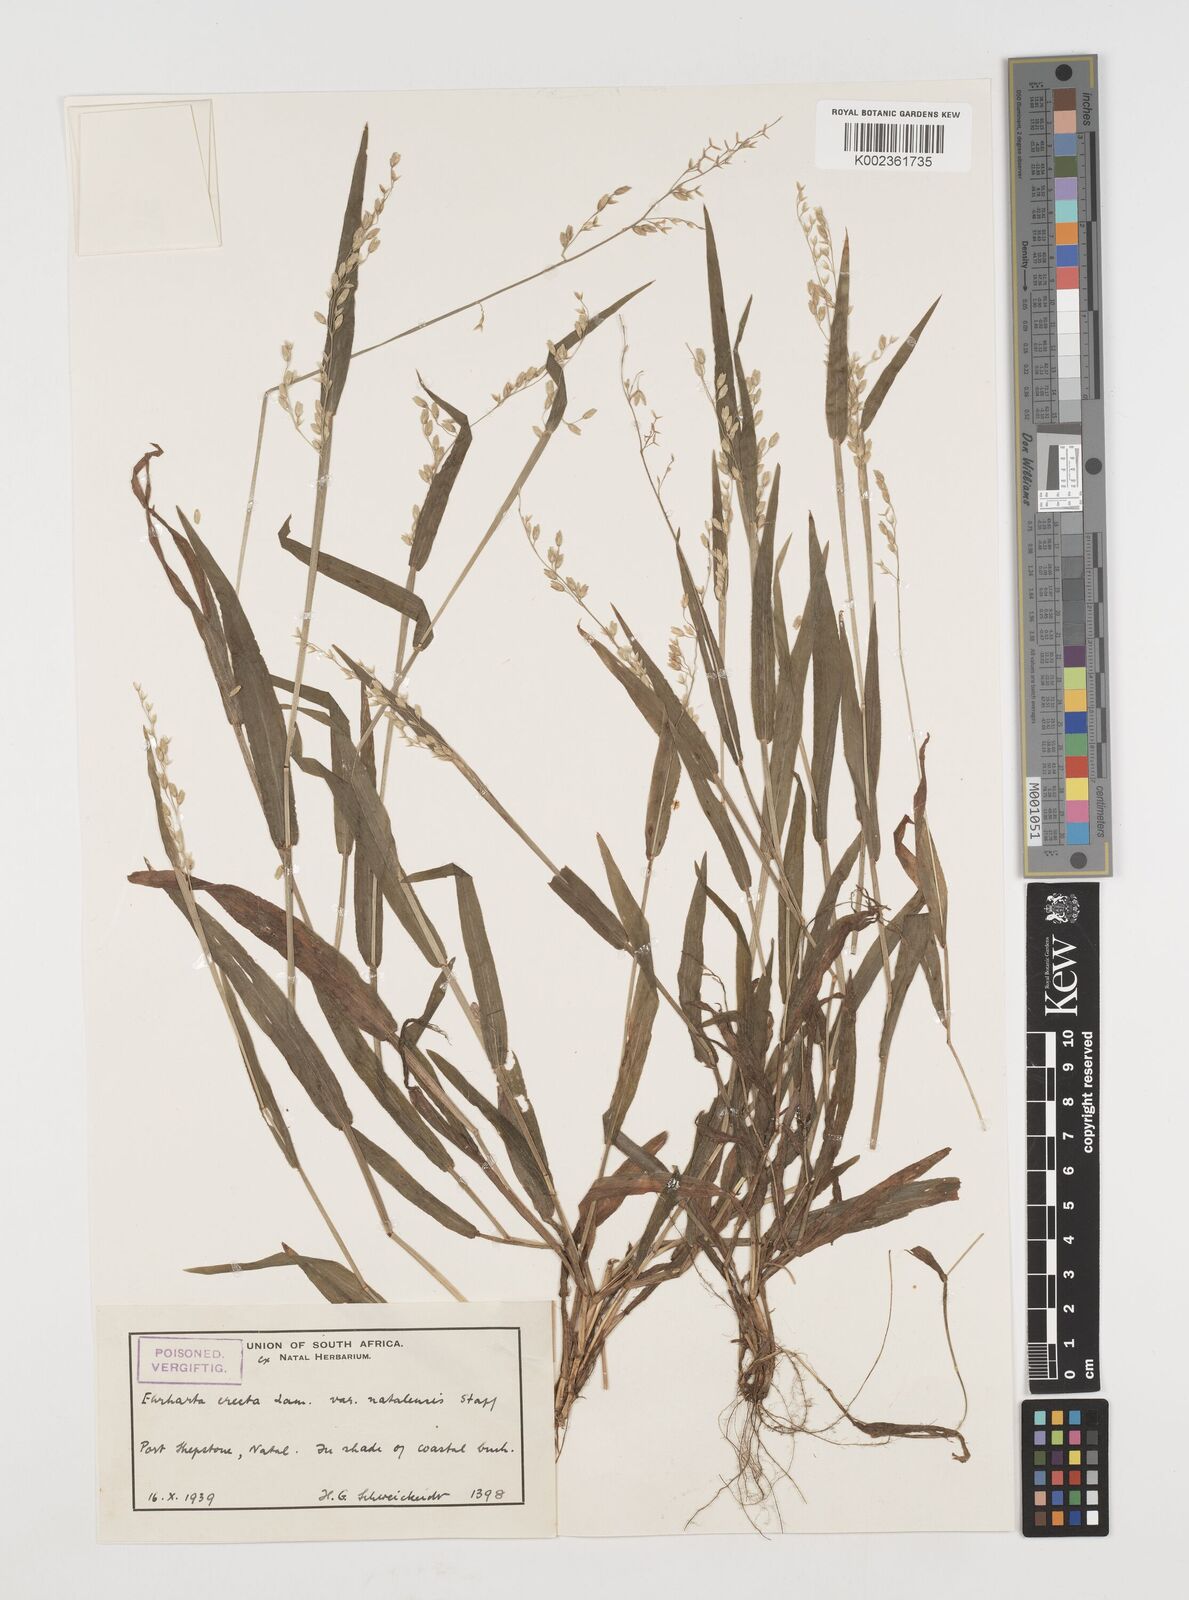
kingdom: Plantae
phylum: Tracheophyta
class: Liliopsida
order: Poales
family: Poaceae
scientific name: Poaceae
